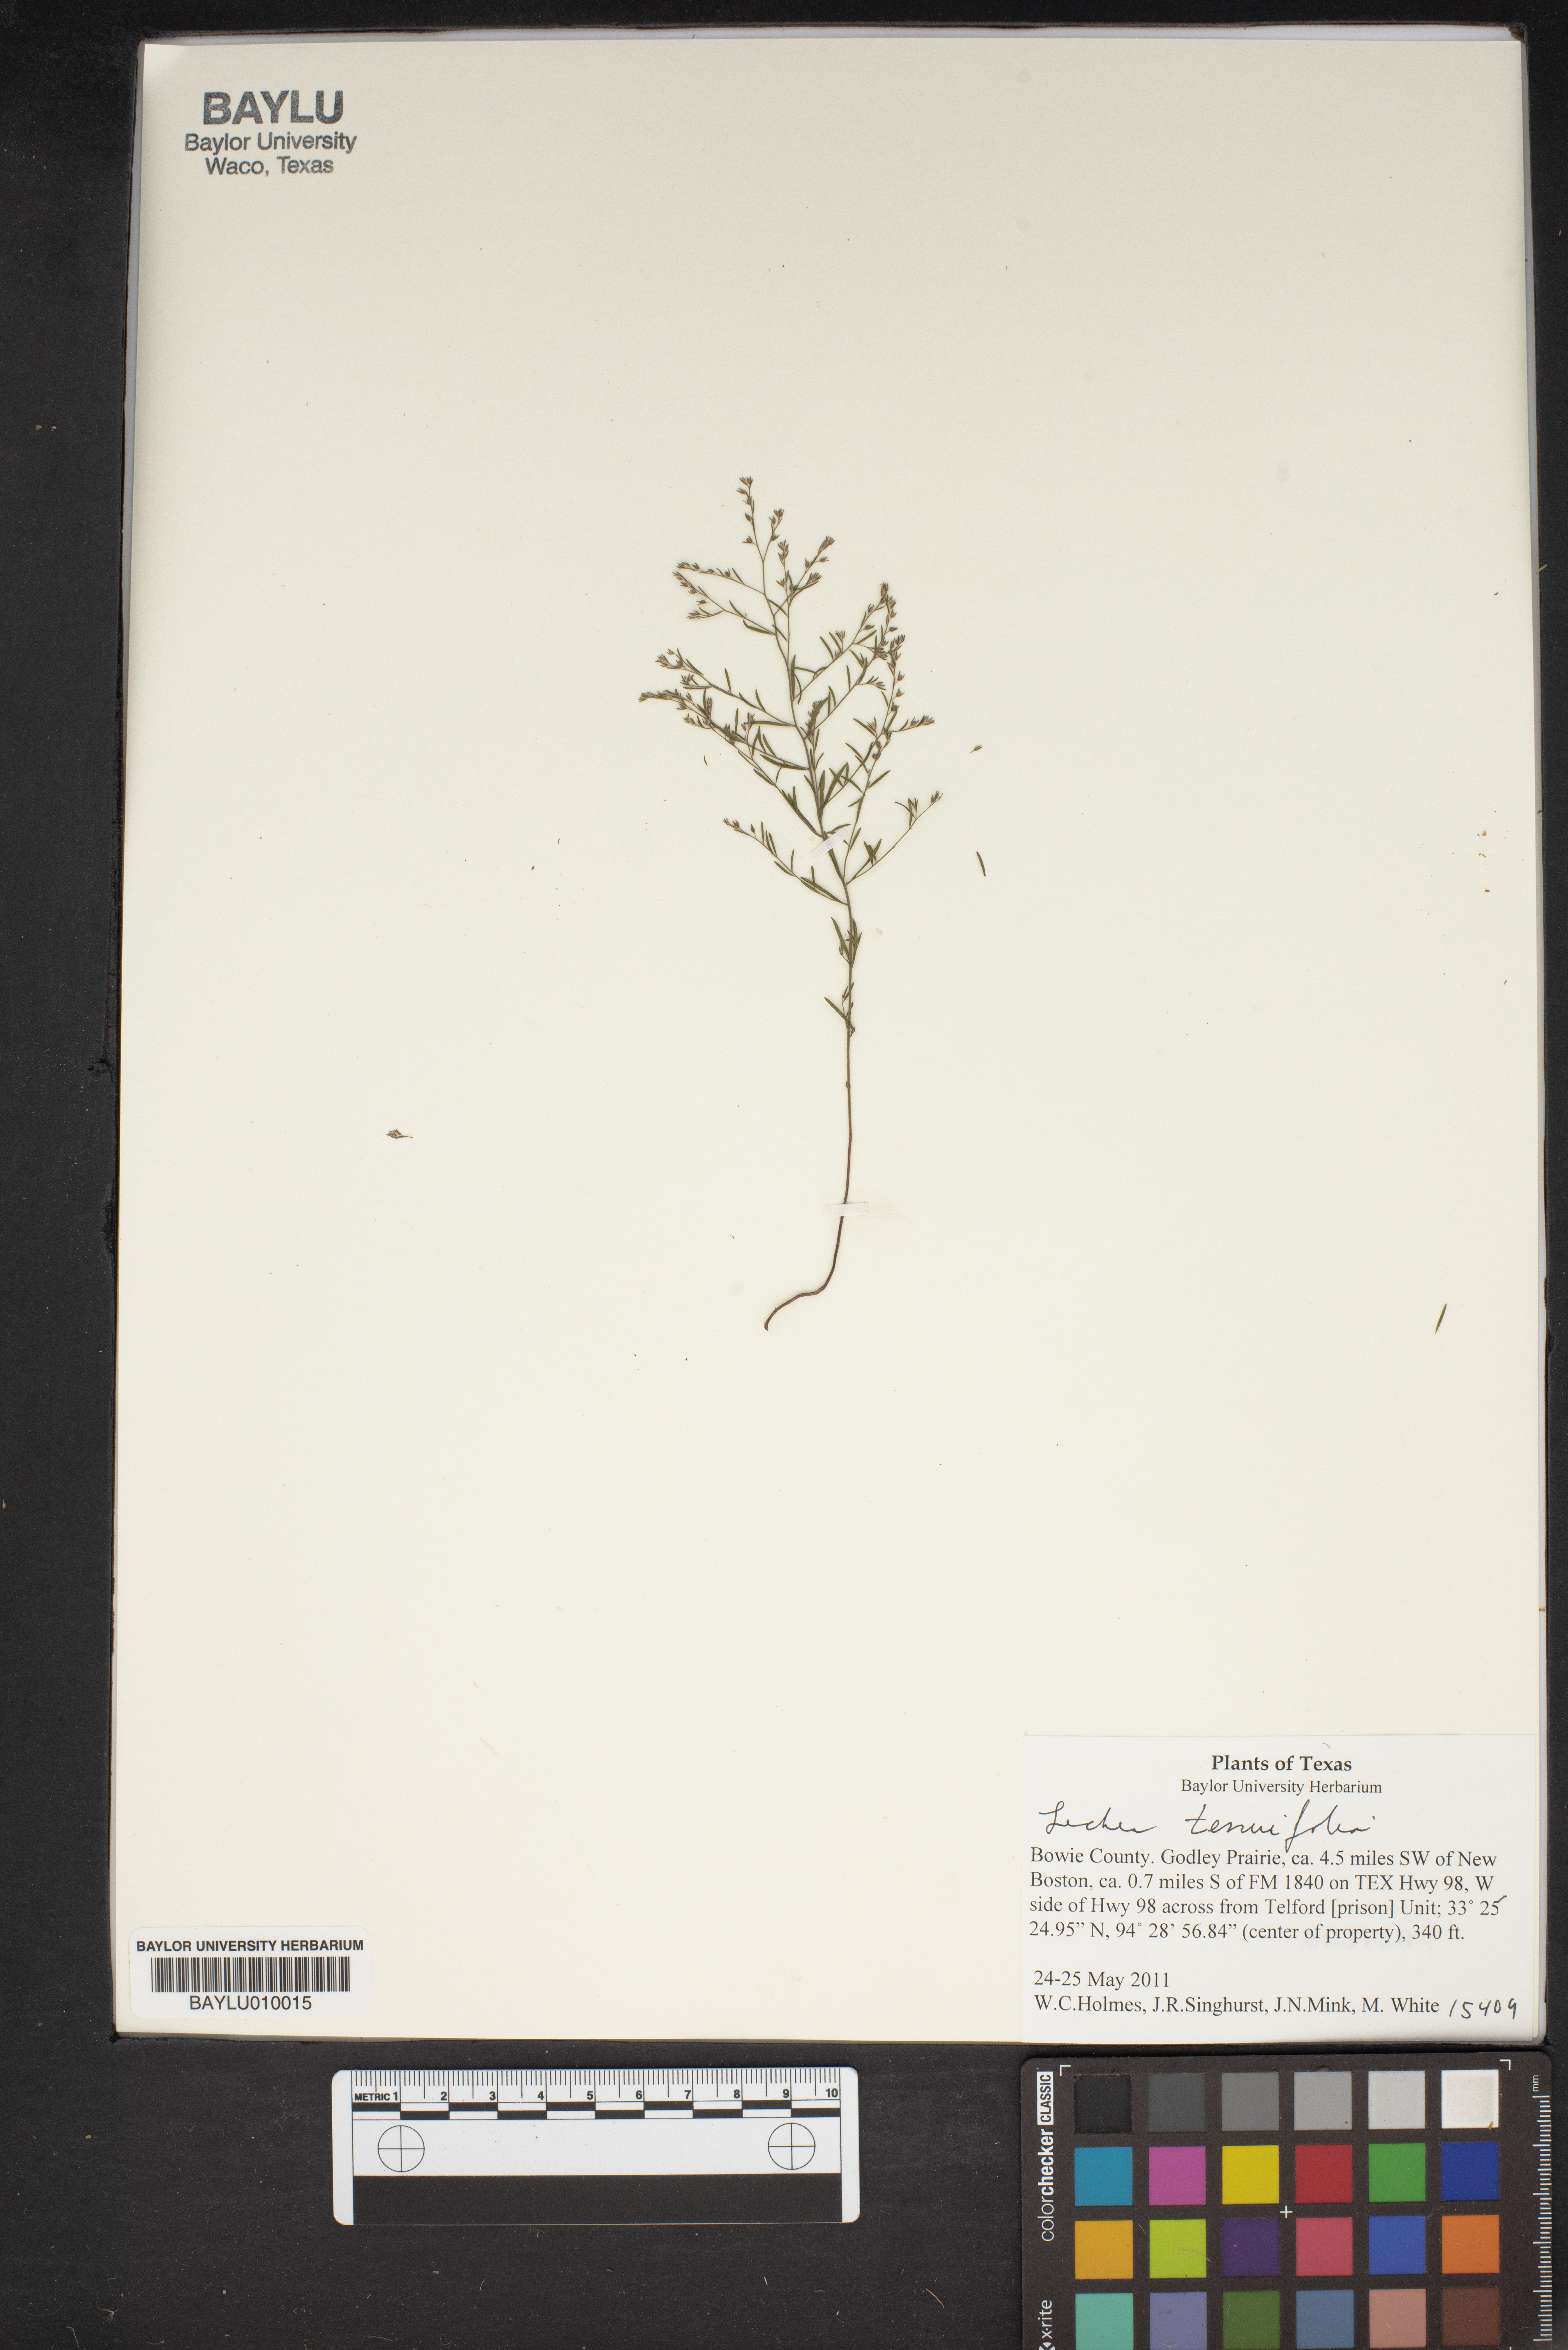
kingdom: Plantae
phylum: Tracheophyta
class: Magnoliopsida
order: Malvales
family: Cistaceae
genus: Lechea
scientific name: Lechea tenuifolia
